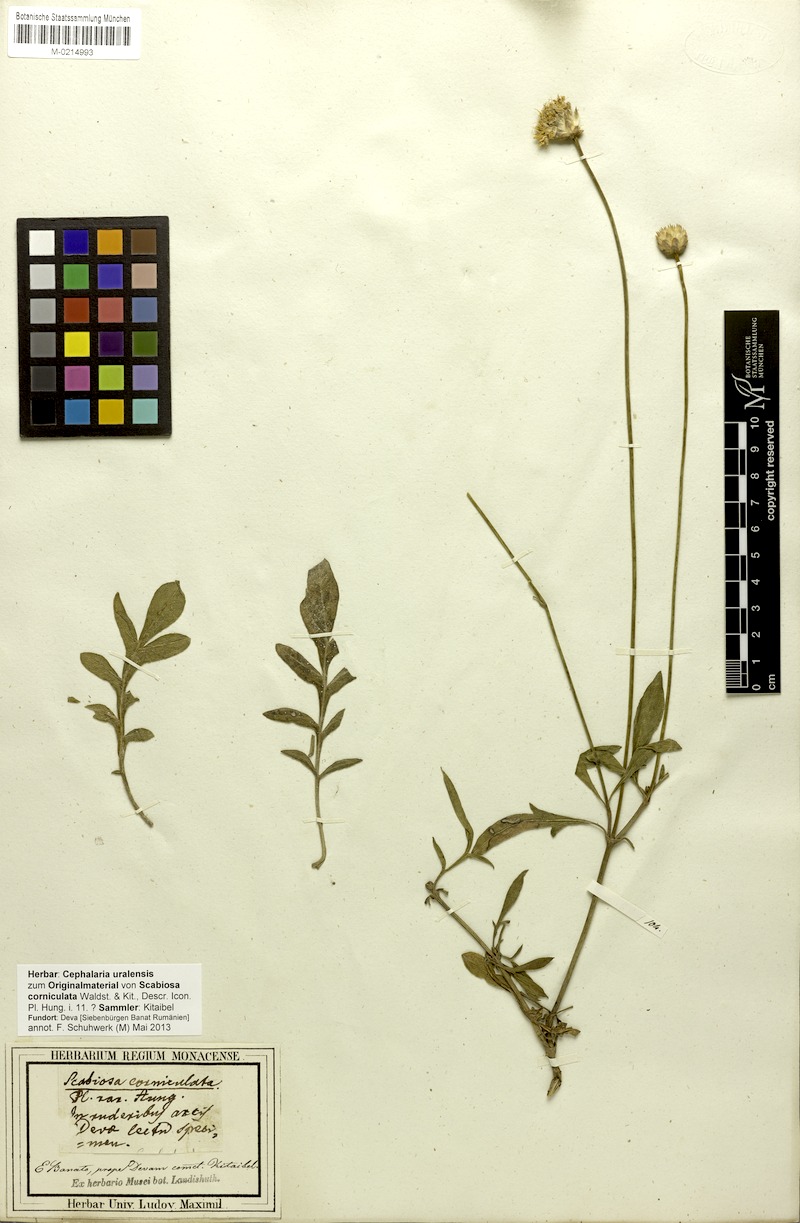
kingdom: Plantae
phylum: Tracheophyta
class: Magnoliopsida
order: Dipsacales
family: Caprifoliaceae
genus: Cephalaria
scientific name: Cephalaria uralensis
